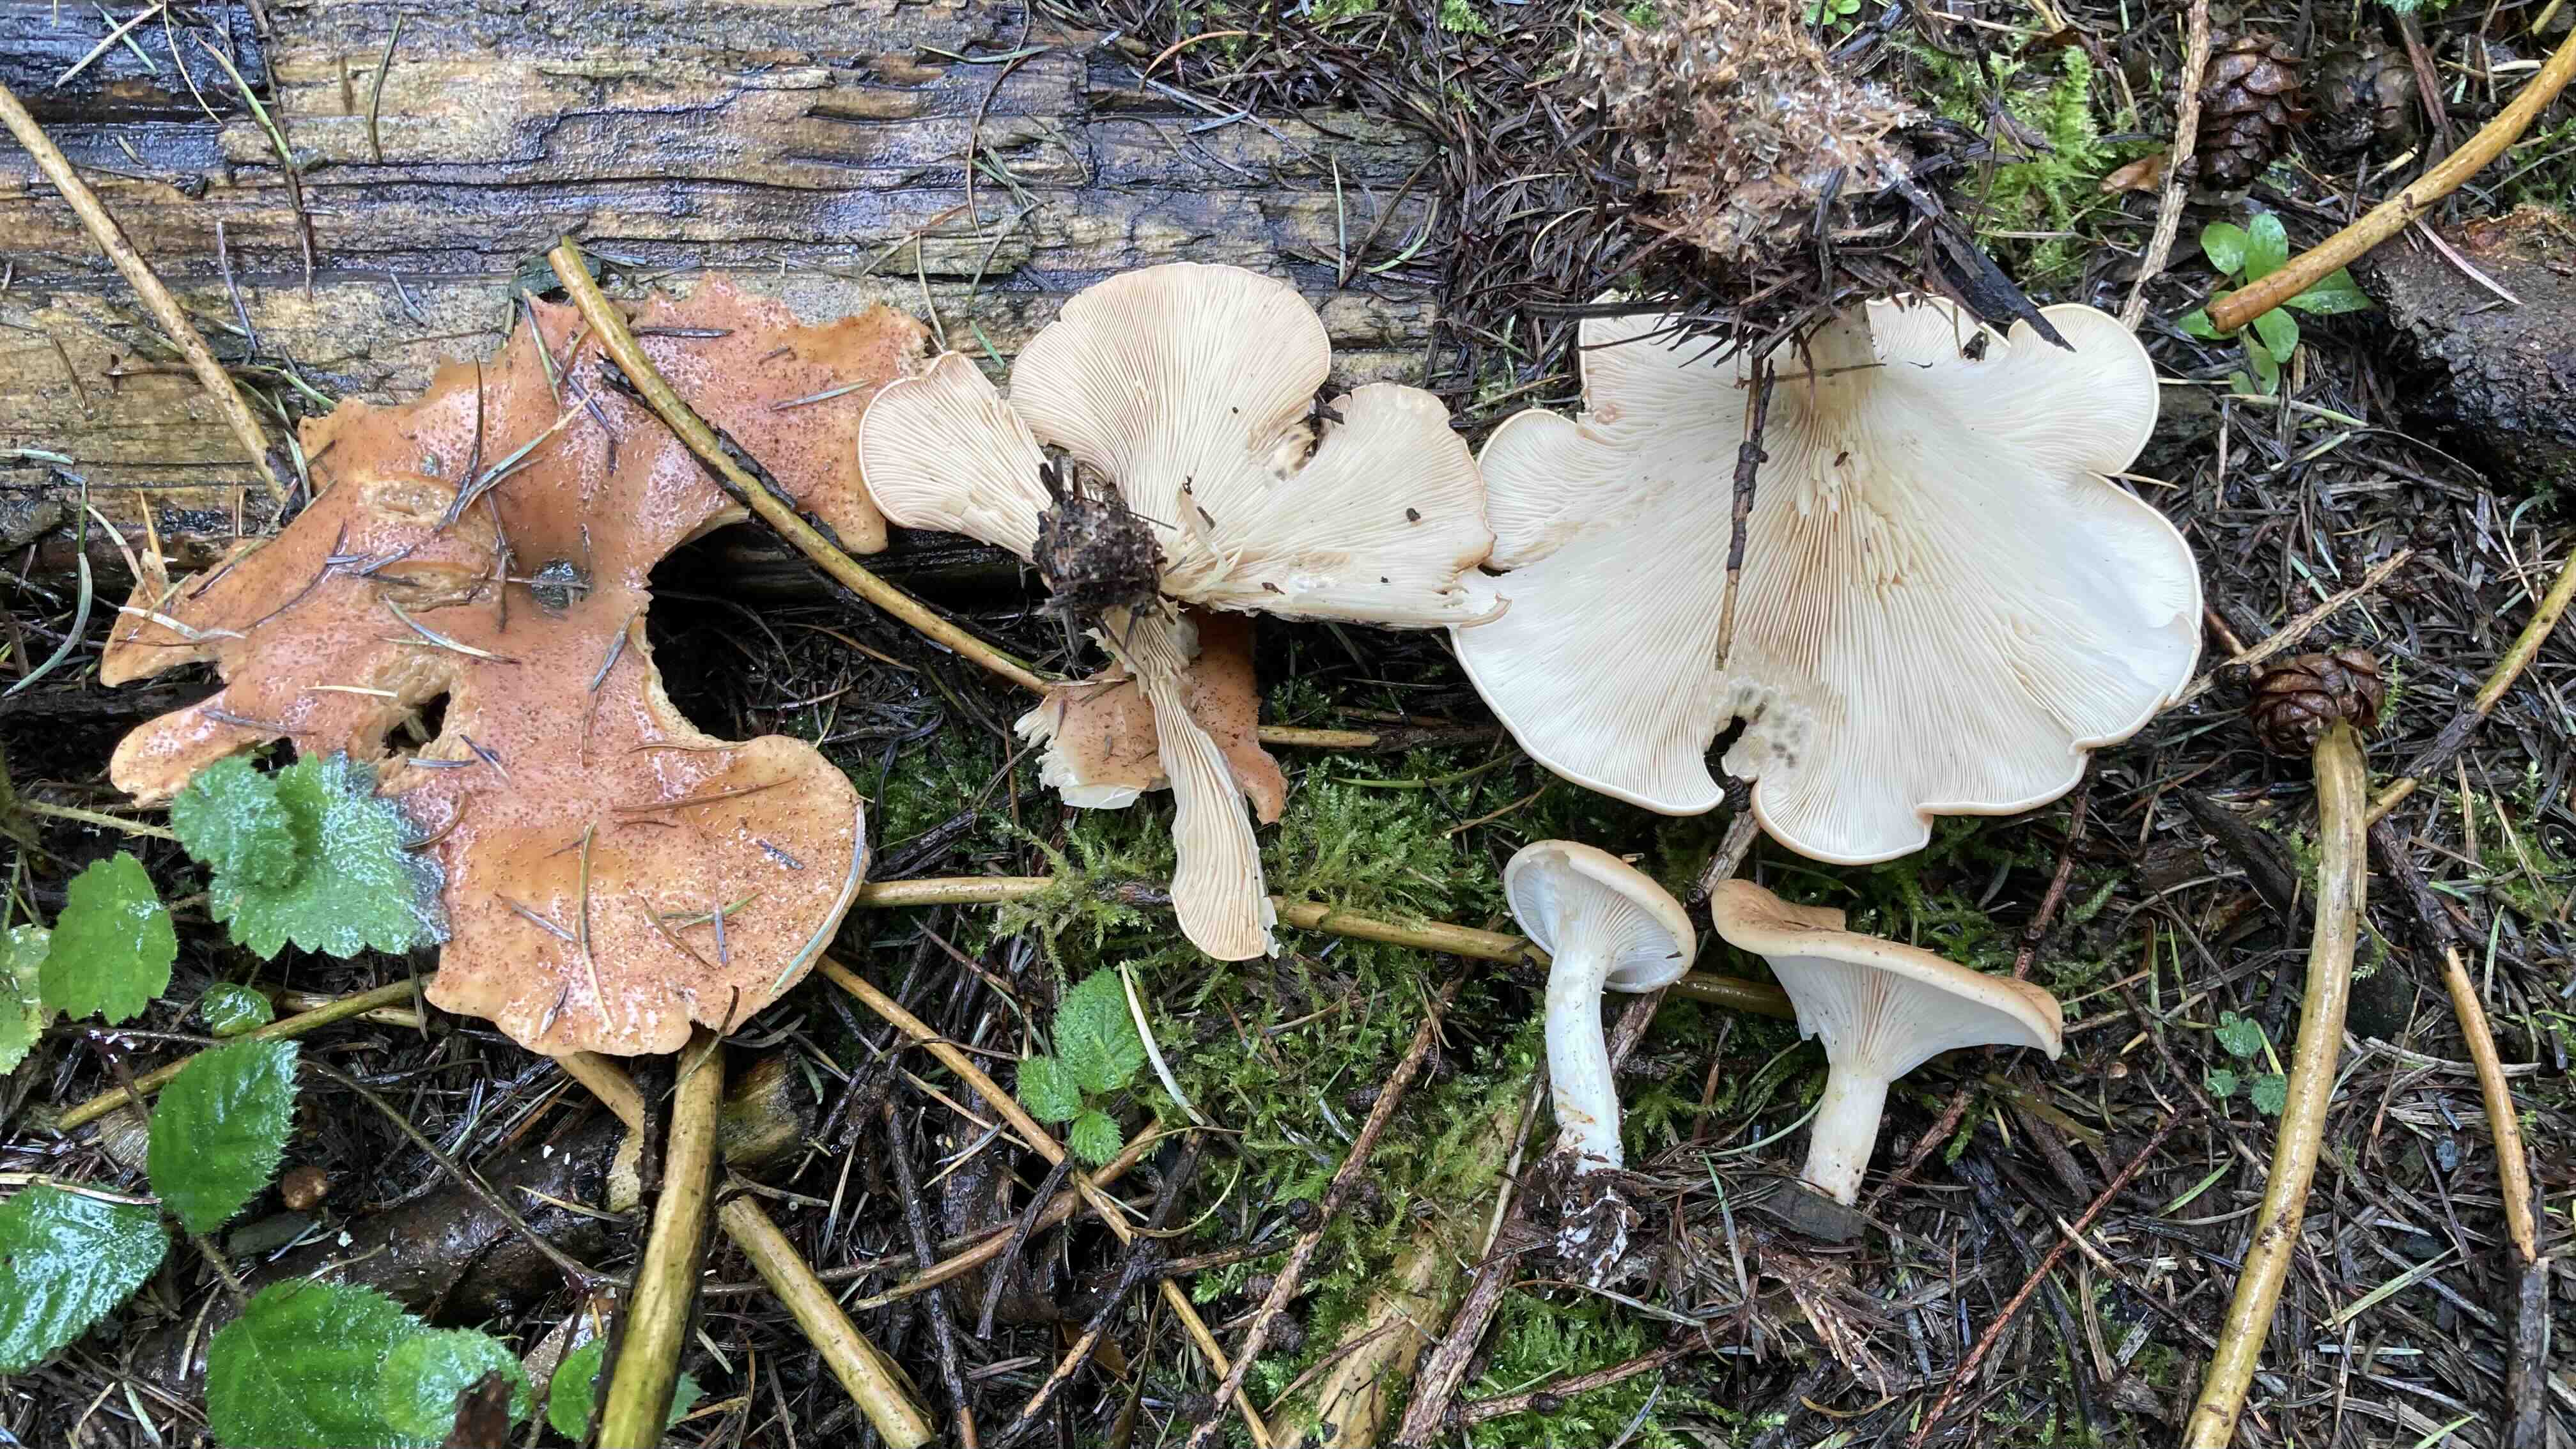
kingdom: Fungi
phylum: Basidiomycota
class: Agaricomycetes
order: Agaricales
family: Tricholomataceae
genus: Paralepista
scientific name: Paralepista flaccida
